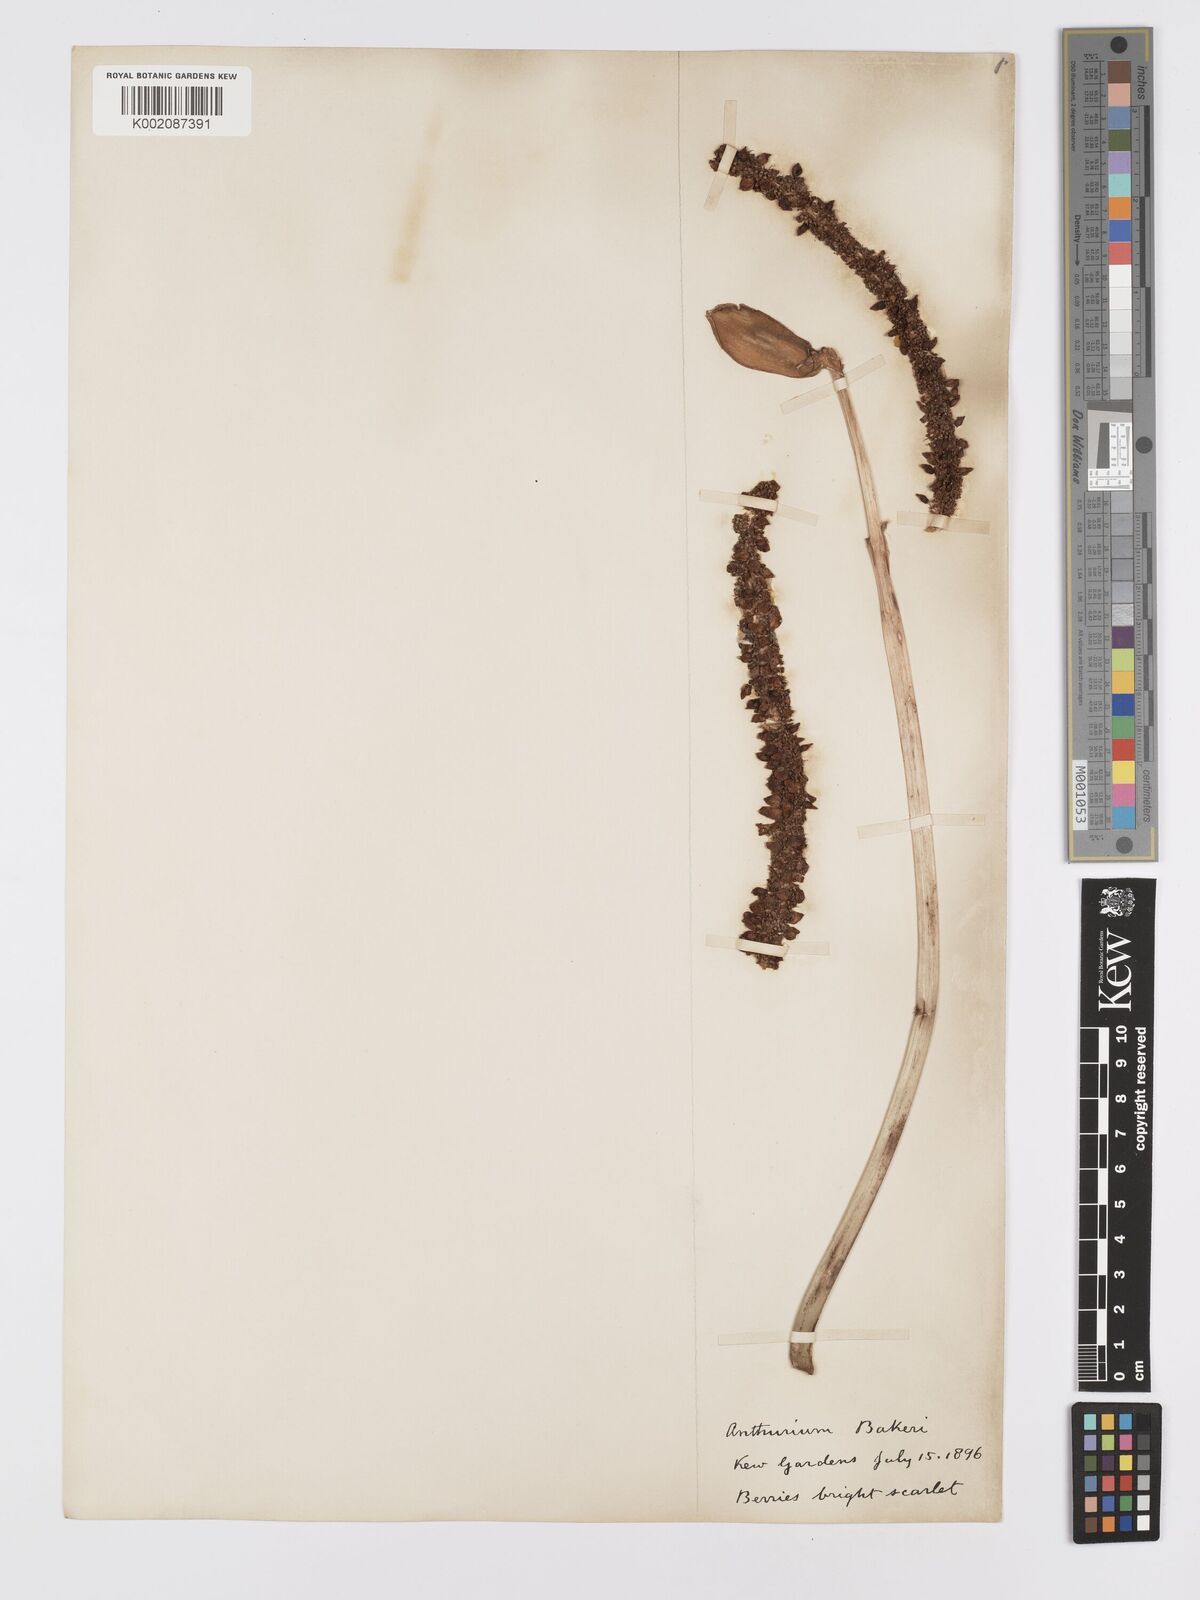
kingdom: Plantae
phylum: Tracheophyta
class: Liliopsida
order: Alismatales
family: Araceae
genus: Anthurium
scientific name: Anthurium bakeri
